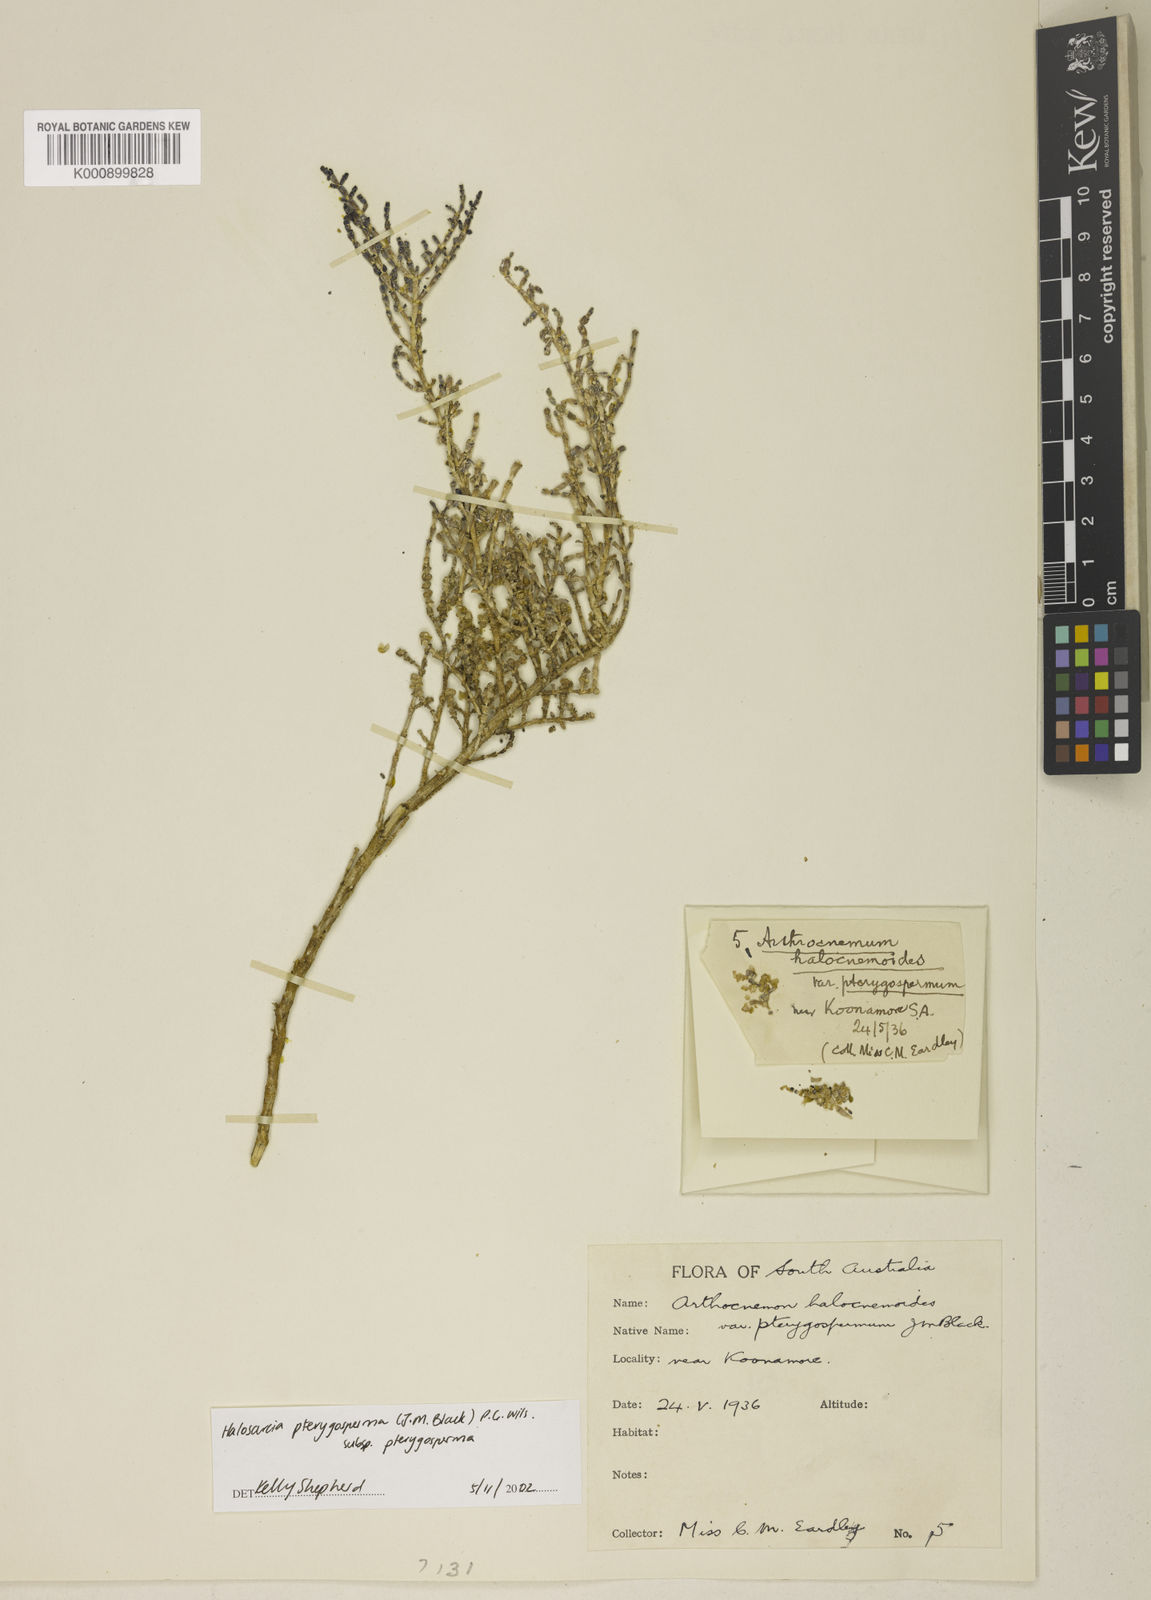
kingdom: Plantae
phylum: Tracheophyta
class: Magnoliopsida
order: Caryophyllales
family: Amaranthaceae
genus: Tecticornia
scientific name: Tecticornia pterygosperma
